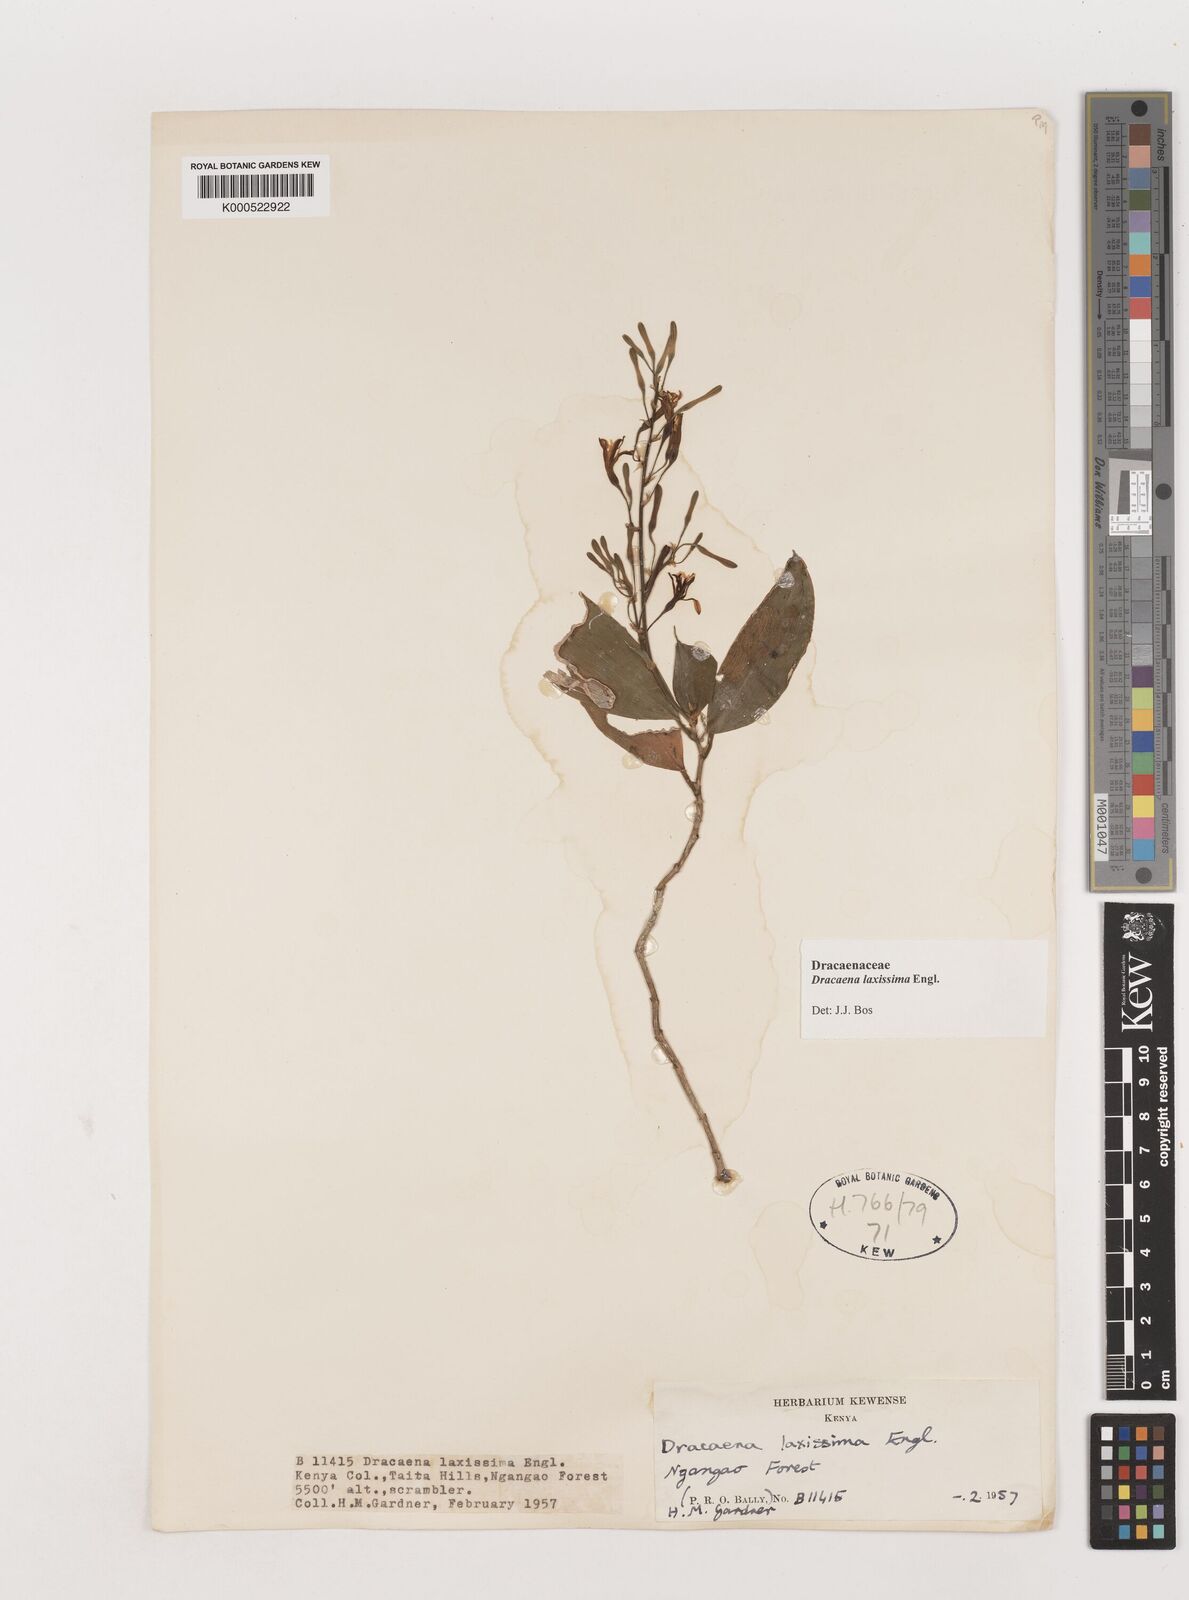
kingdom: Plantae
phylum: Tracheophyta
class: Liliopsida
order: Asparagales
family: Asparagaceae
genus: Dracaena
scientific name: Dracaena laxissima
